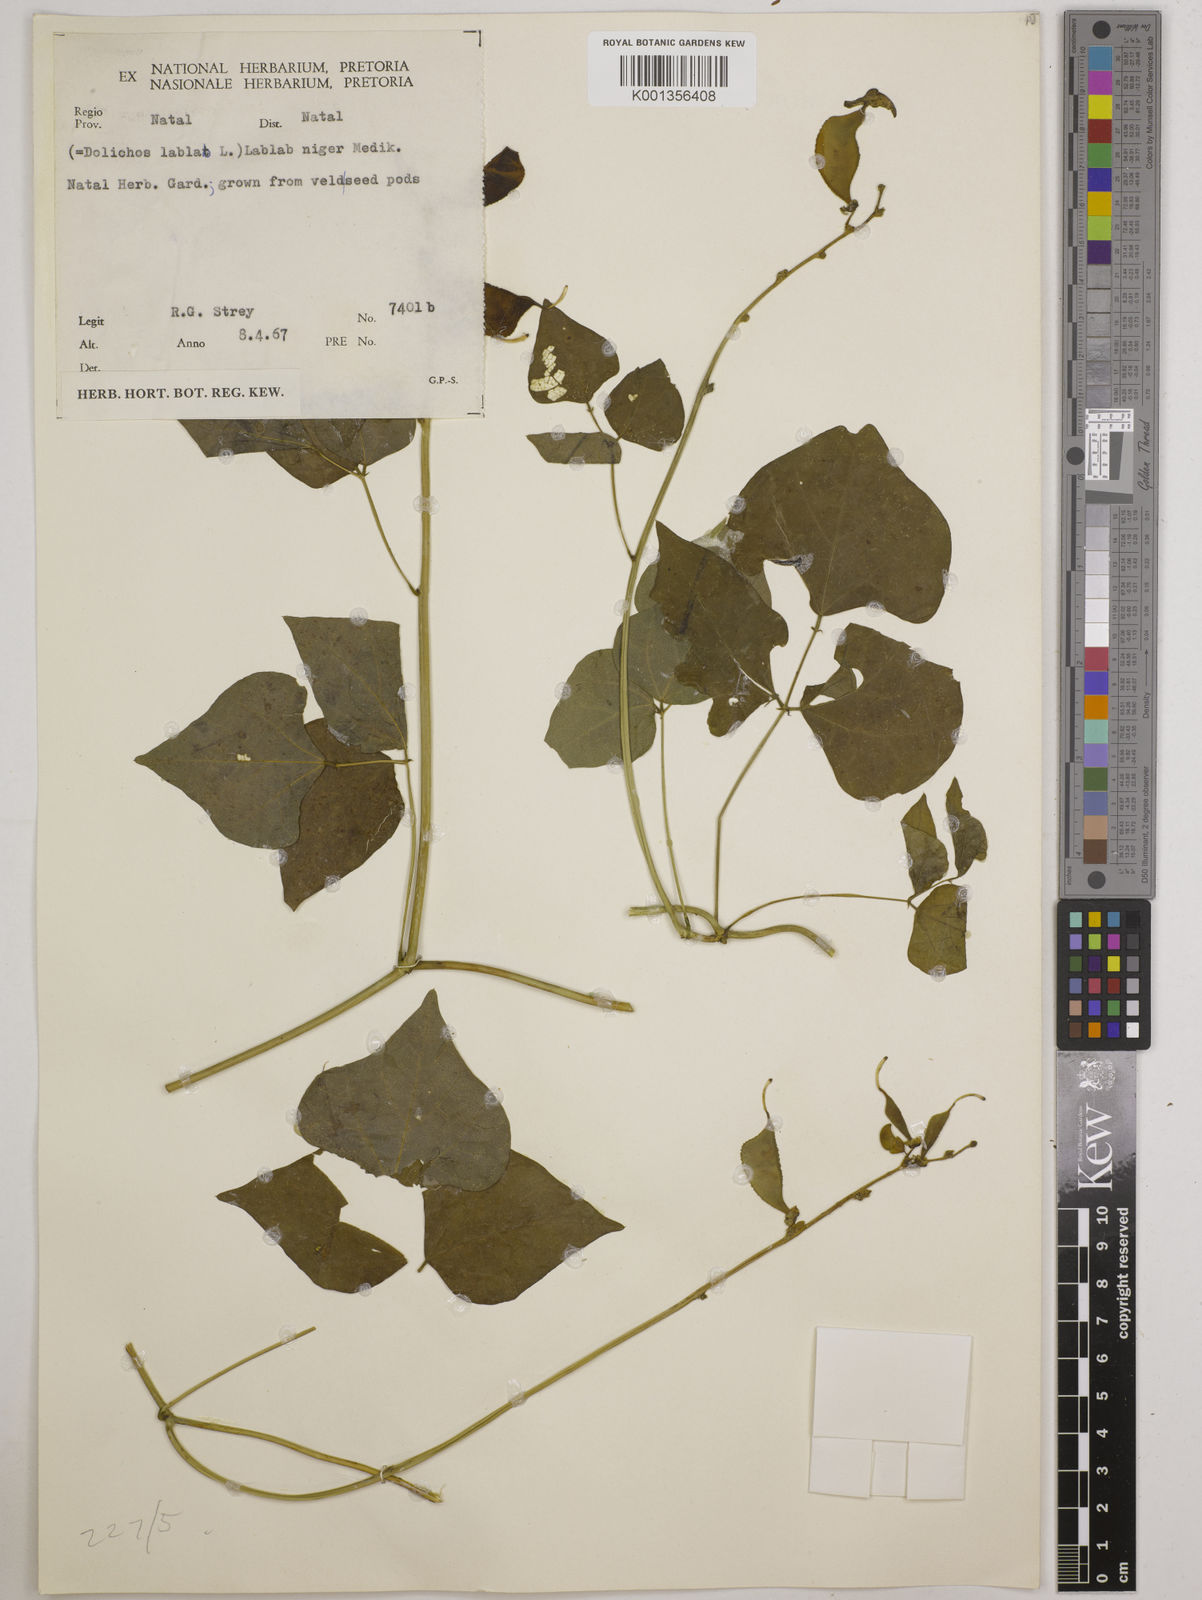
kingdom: Plantae
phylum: Tracheophyta
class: Magnoliopsida
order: Fabales
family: Fabaceae
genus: Lablab
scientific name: Lablab purpureus
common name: Lablab-bean
